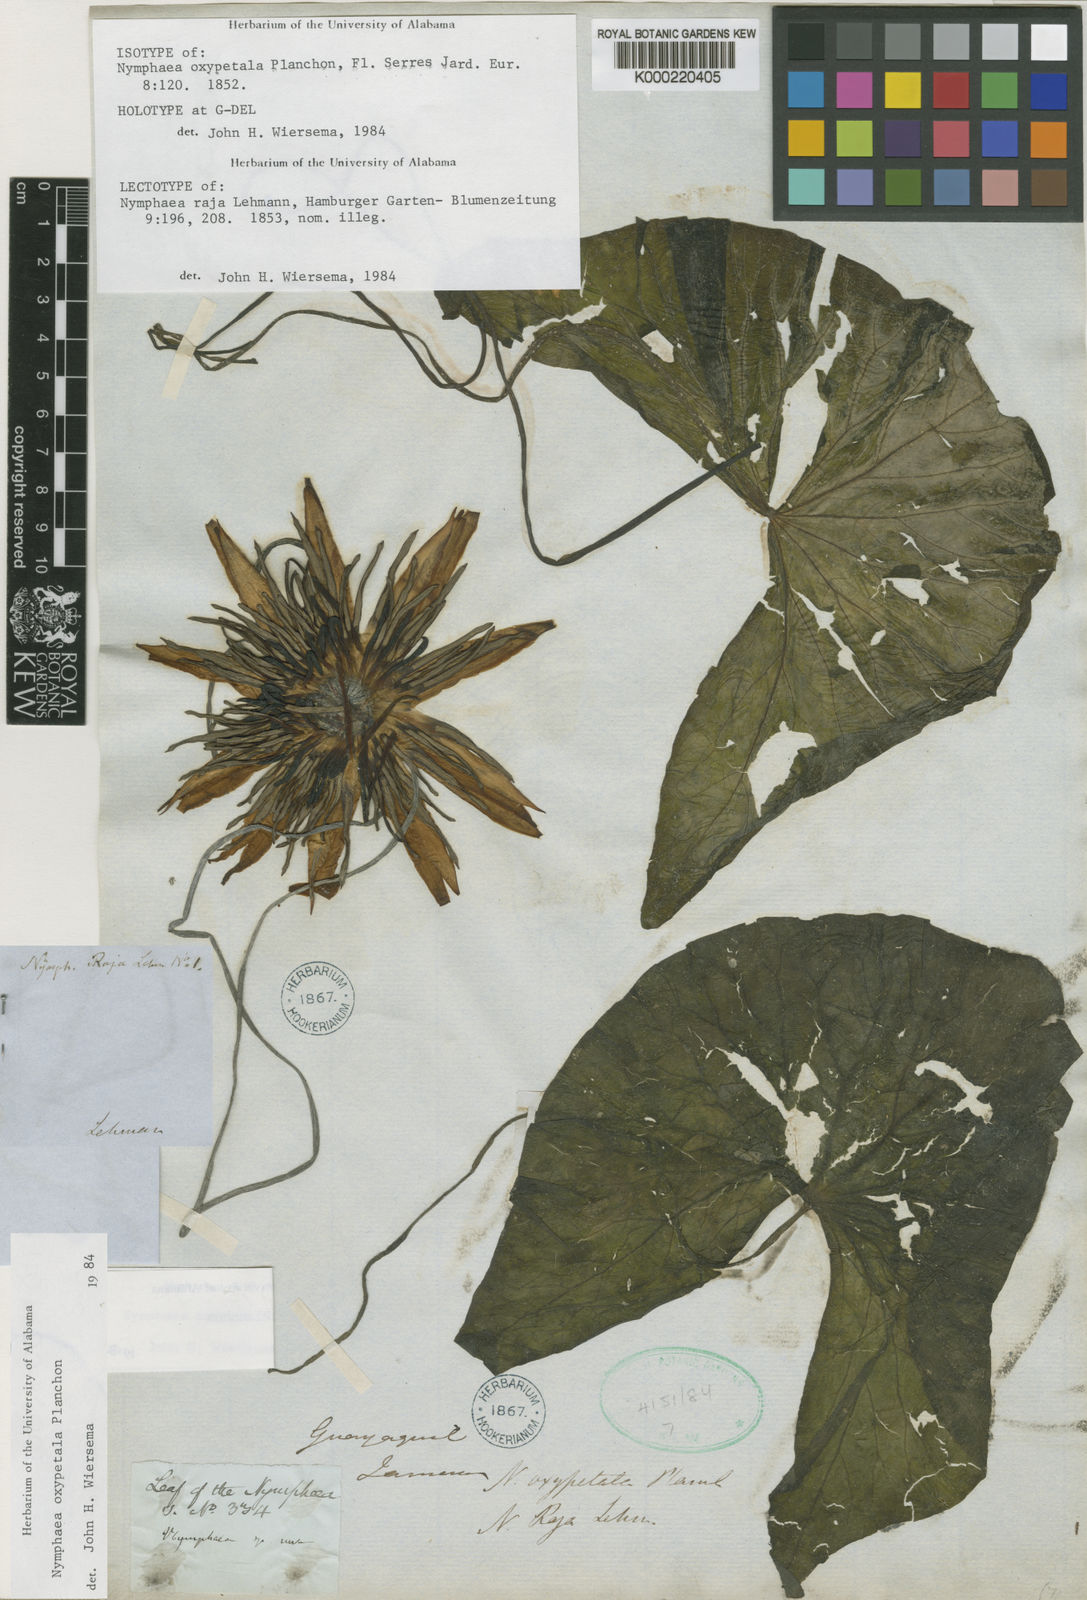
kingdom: Plantae
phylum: Tracheophyta
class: Magnoliopsida
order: Nymphaeales
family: Nymphaeaceae
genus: Nymphaea
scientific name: Nymphaea oxypetala
